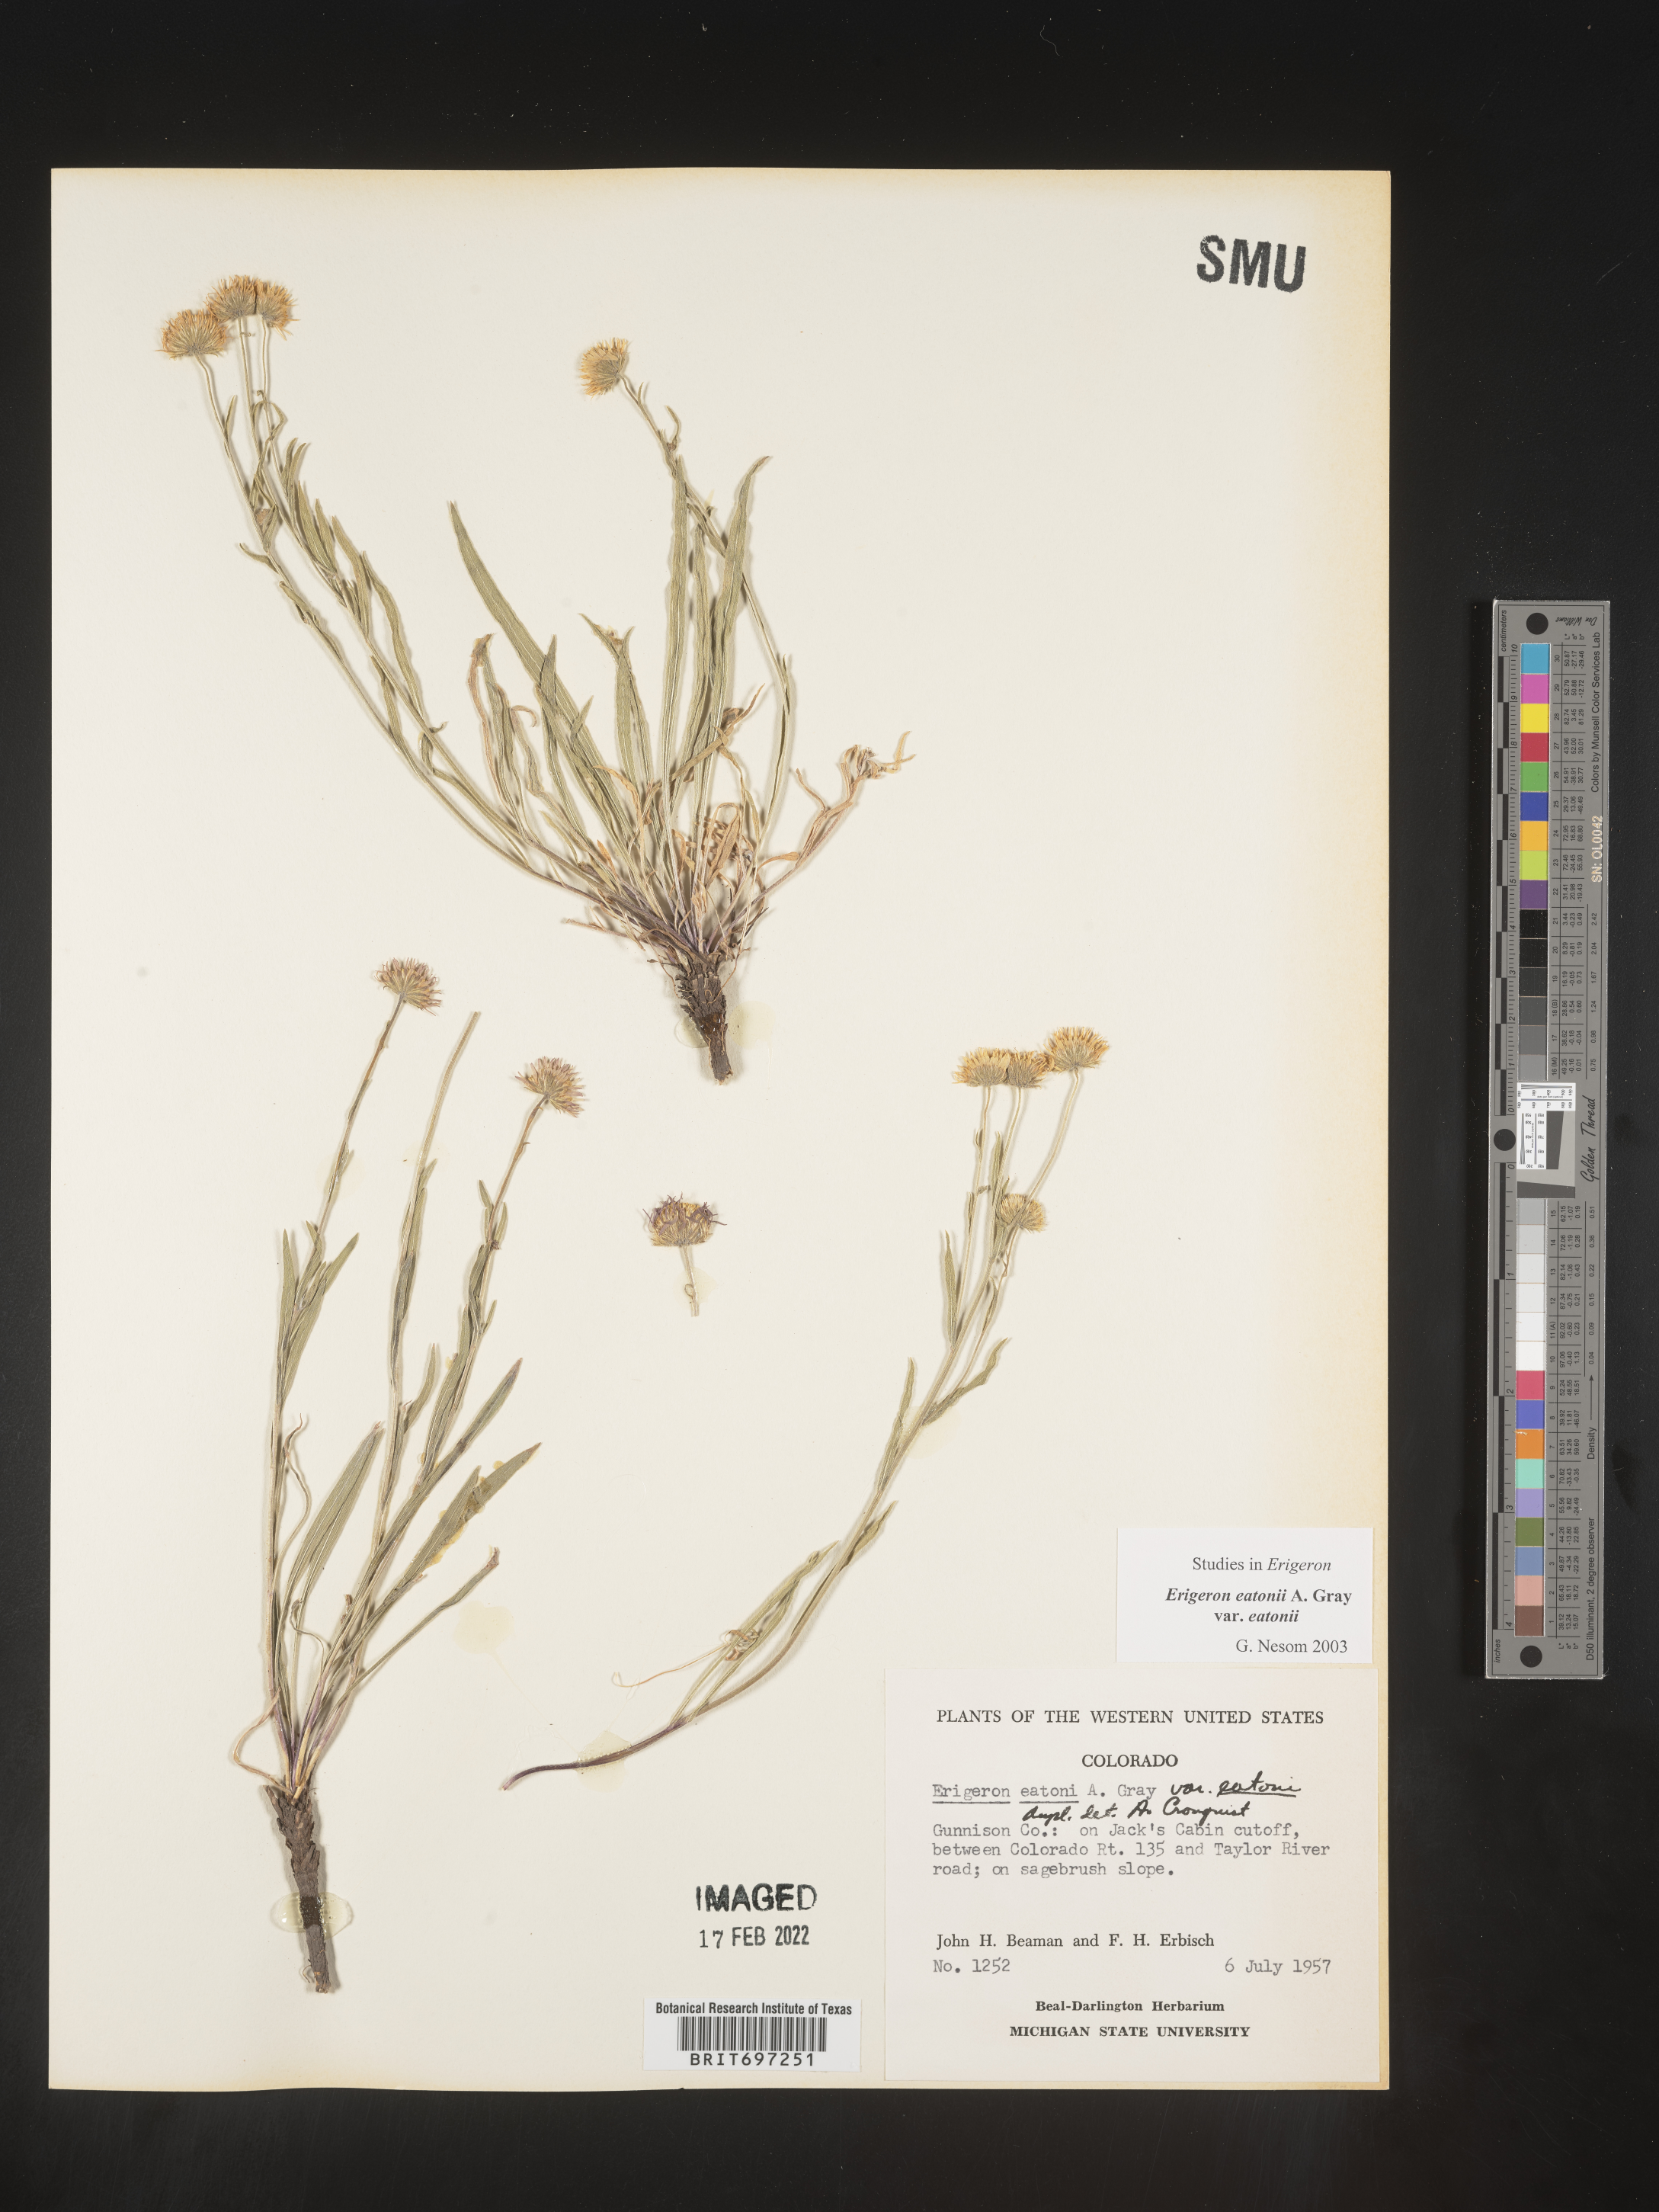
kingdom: Plantae
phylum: Tracheophyta
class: Magnoliopsida
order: Asterales
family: Asteraceae
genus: Erigeron
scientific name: Erigeron eatonii
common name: Eaton's fleabane
